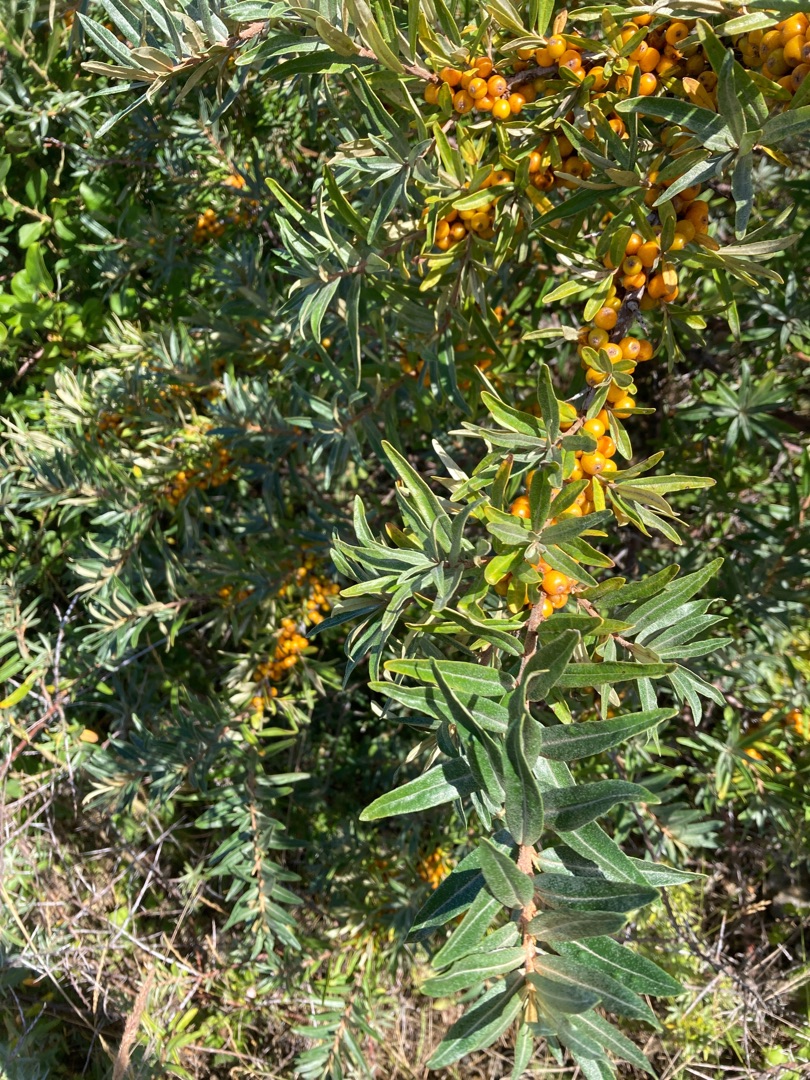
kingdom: Plantae
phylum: Tracheophyta
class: Magnoliopsida
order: Rosales
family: Elaeagnaceae
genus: Hippophae
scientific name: Hippophae rhamnoides
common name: Havtorn
